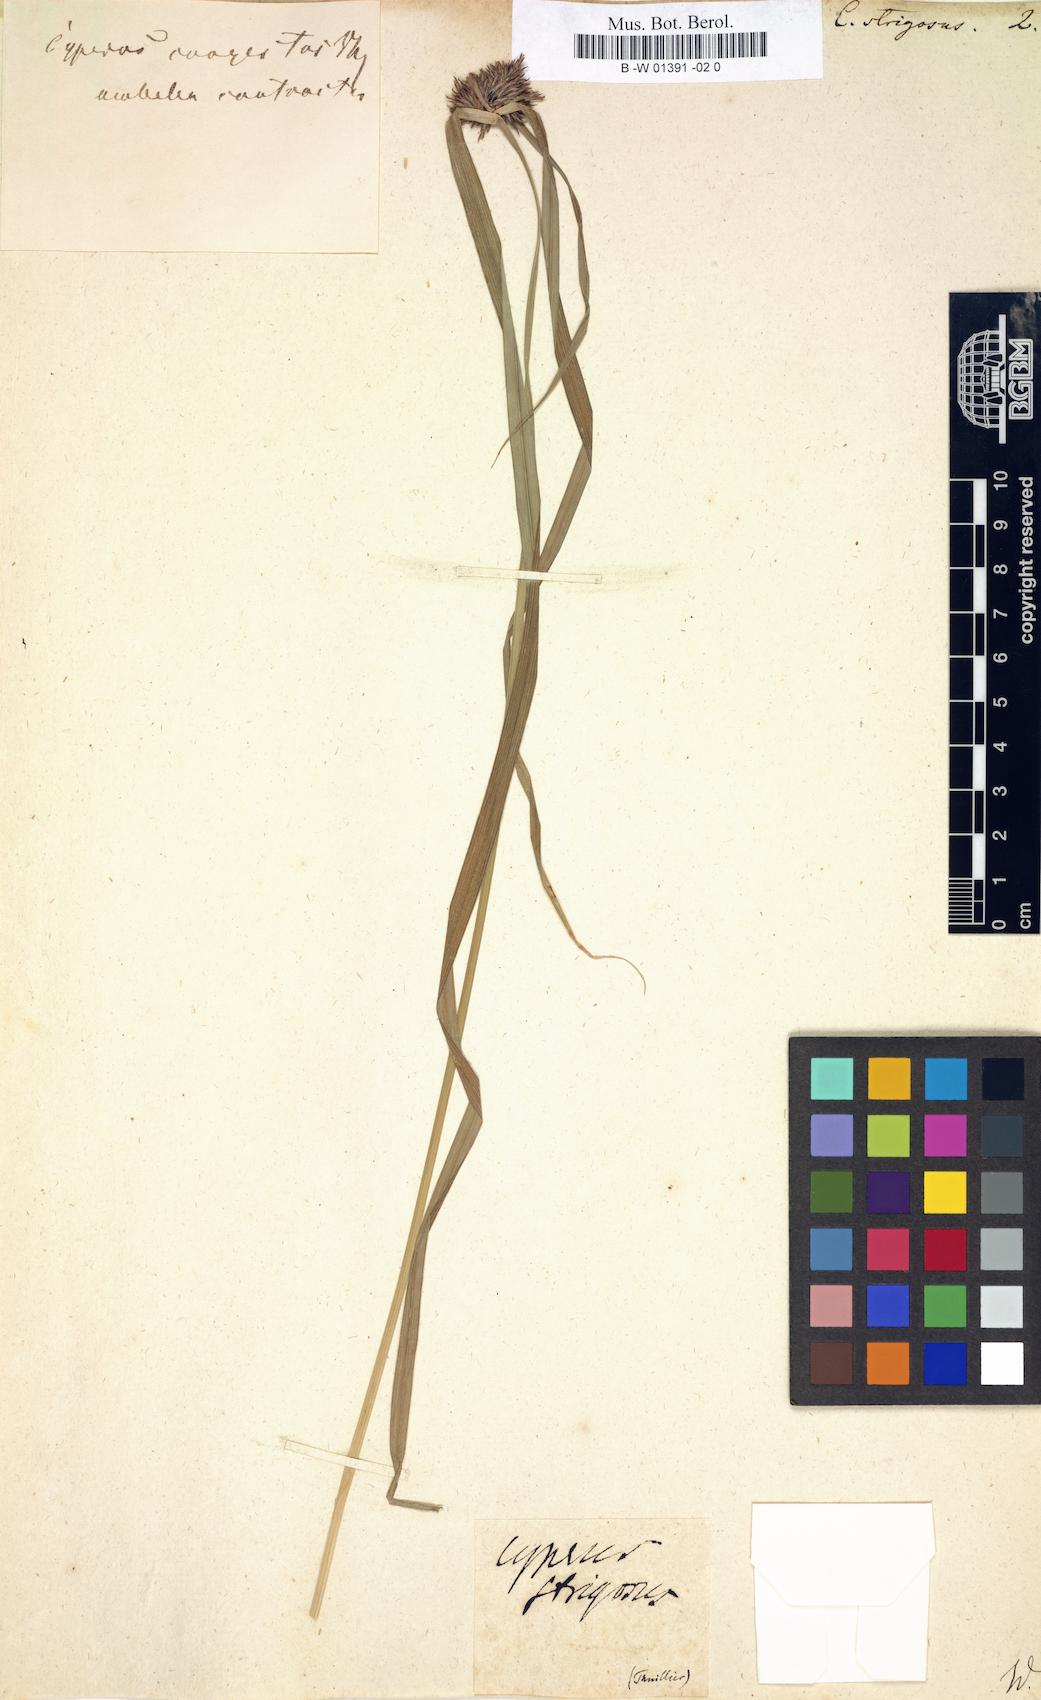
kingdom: Plantae
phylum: Tracheophyta
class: Liliopsida
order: Poales
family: Cyperaceae
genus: Cyperus
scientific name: Cyperus strigosus
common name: False nutsedge
